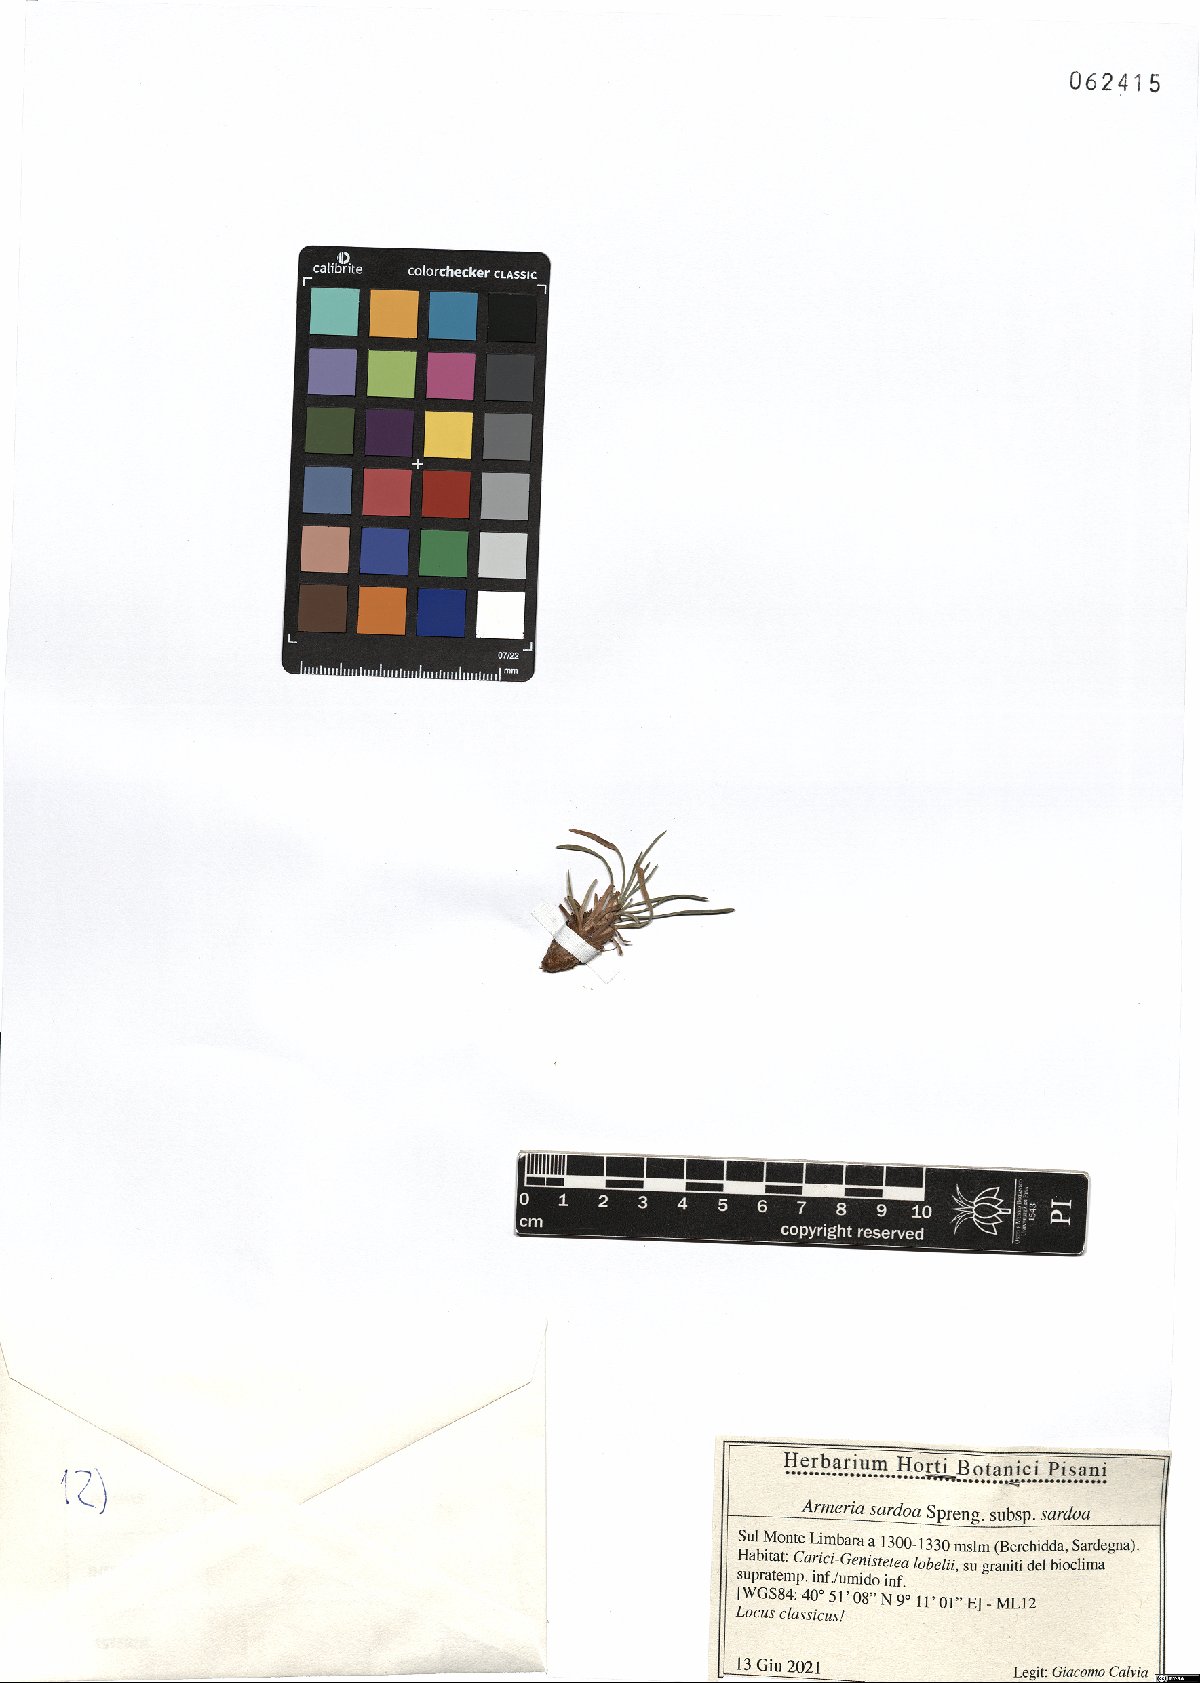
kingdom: Plantae
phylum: Tracheophyta
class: Magnoliopsida
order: Caryophyllales
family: Plumbaginaceae
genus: Armeria
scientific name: Armeria sardoa
